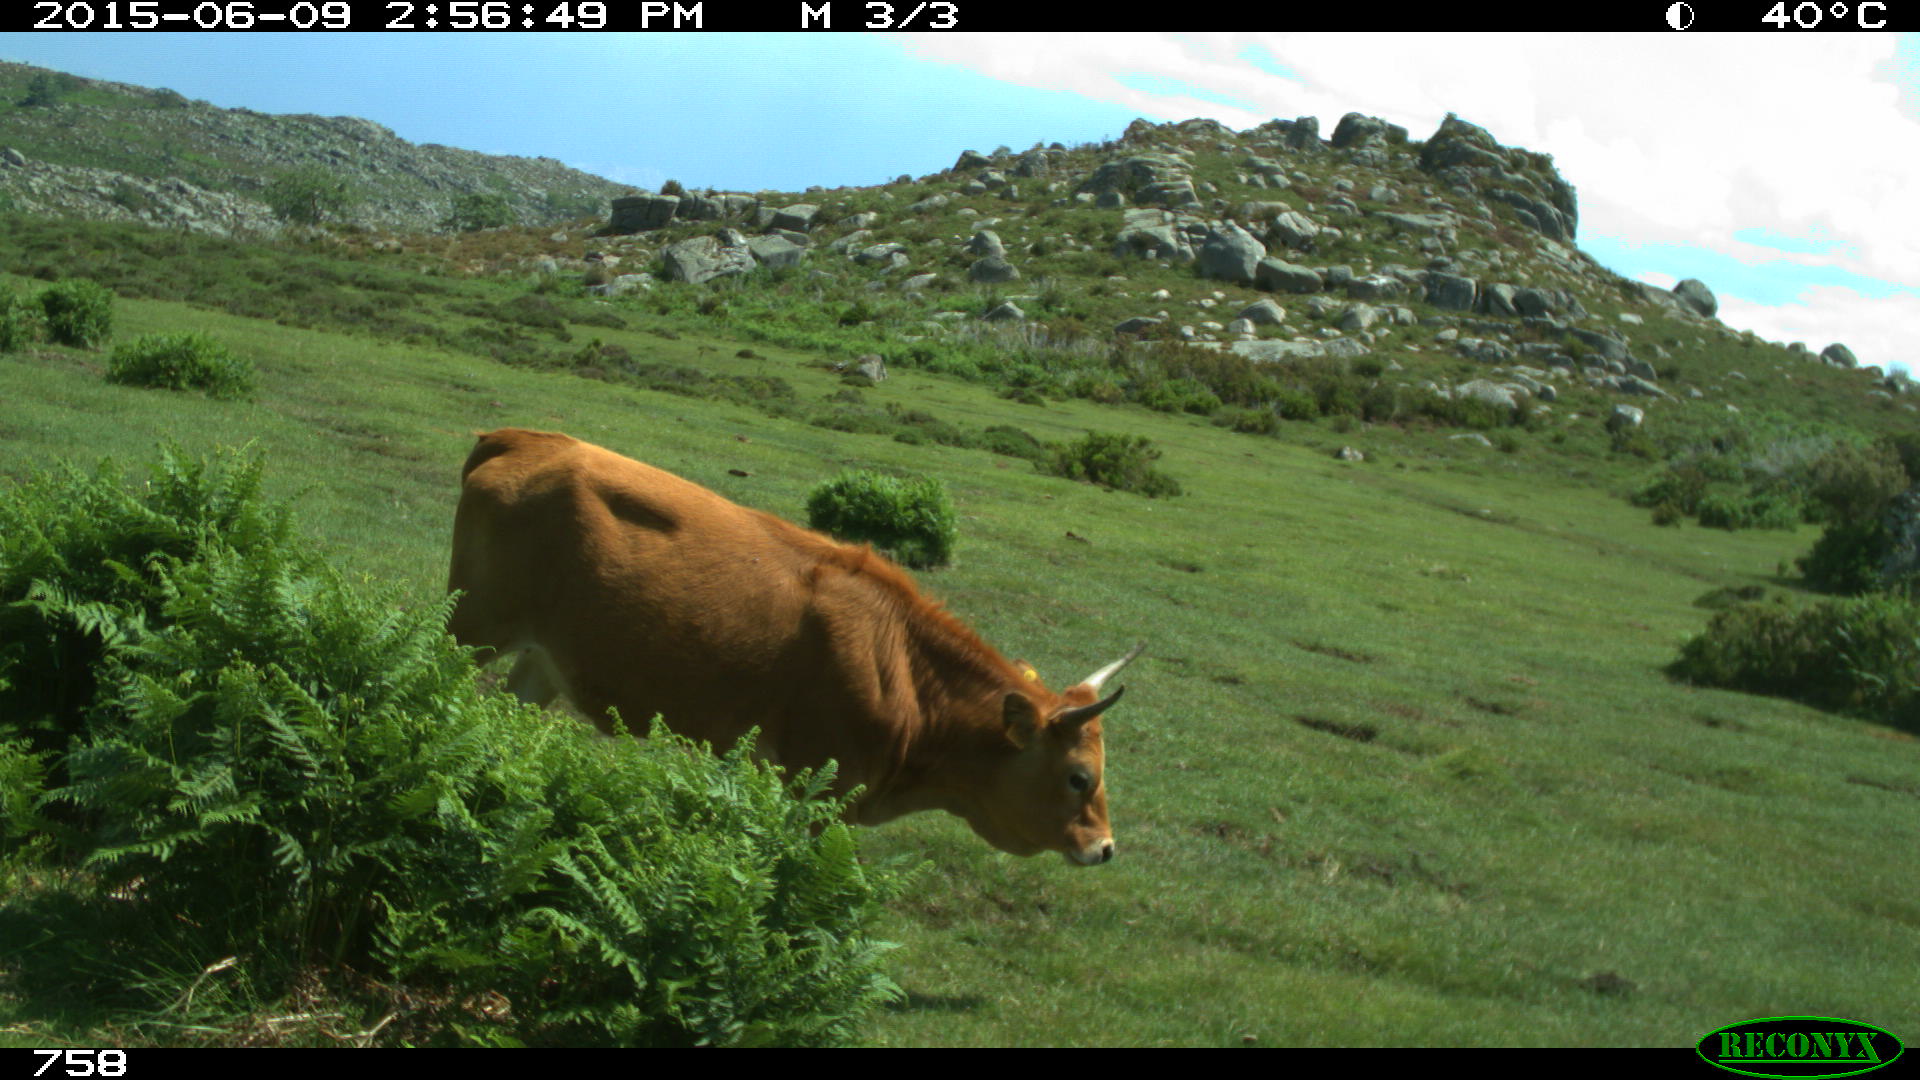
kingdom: Animalia
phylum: Chordata
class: Mammalia
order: Artiodactyla
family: Bovidae
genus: Bos
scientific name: Bos taurus
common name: Domesticated cattle
